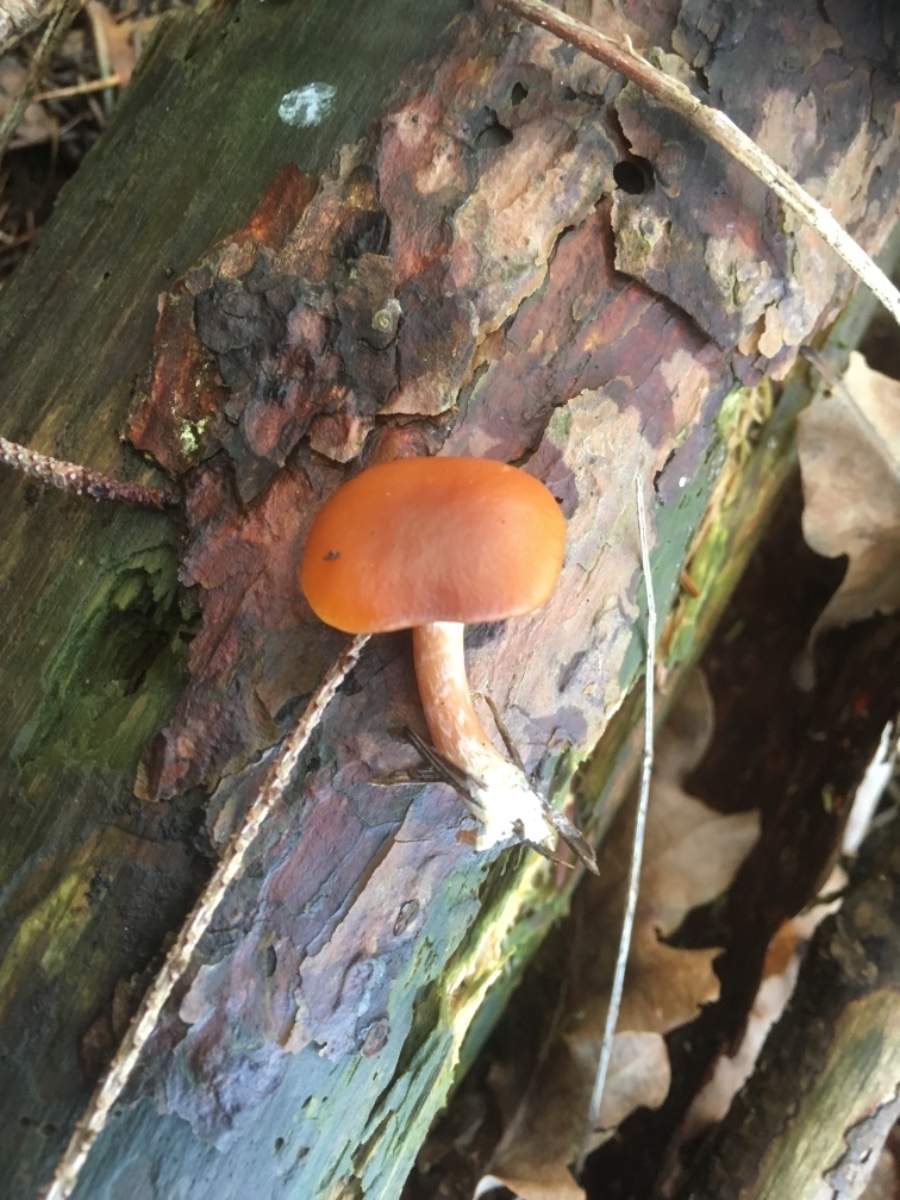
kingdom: Fungi
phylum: Basidiomycota
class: Agaricomycetes
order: Agaricales
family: Hymenogastraceae
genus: Gymnopilus
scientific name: Gymnopilus penetrans
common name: plettet flammehat
